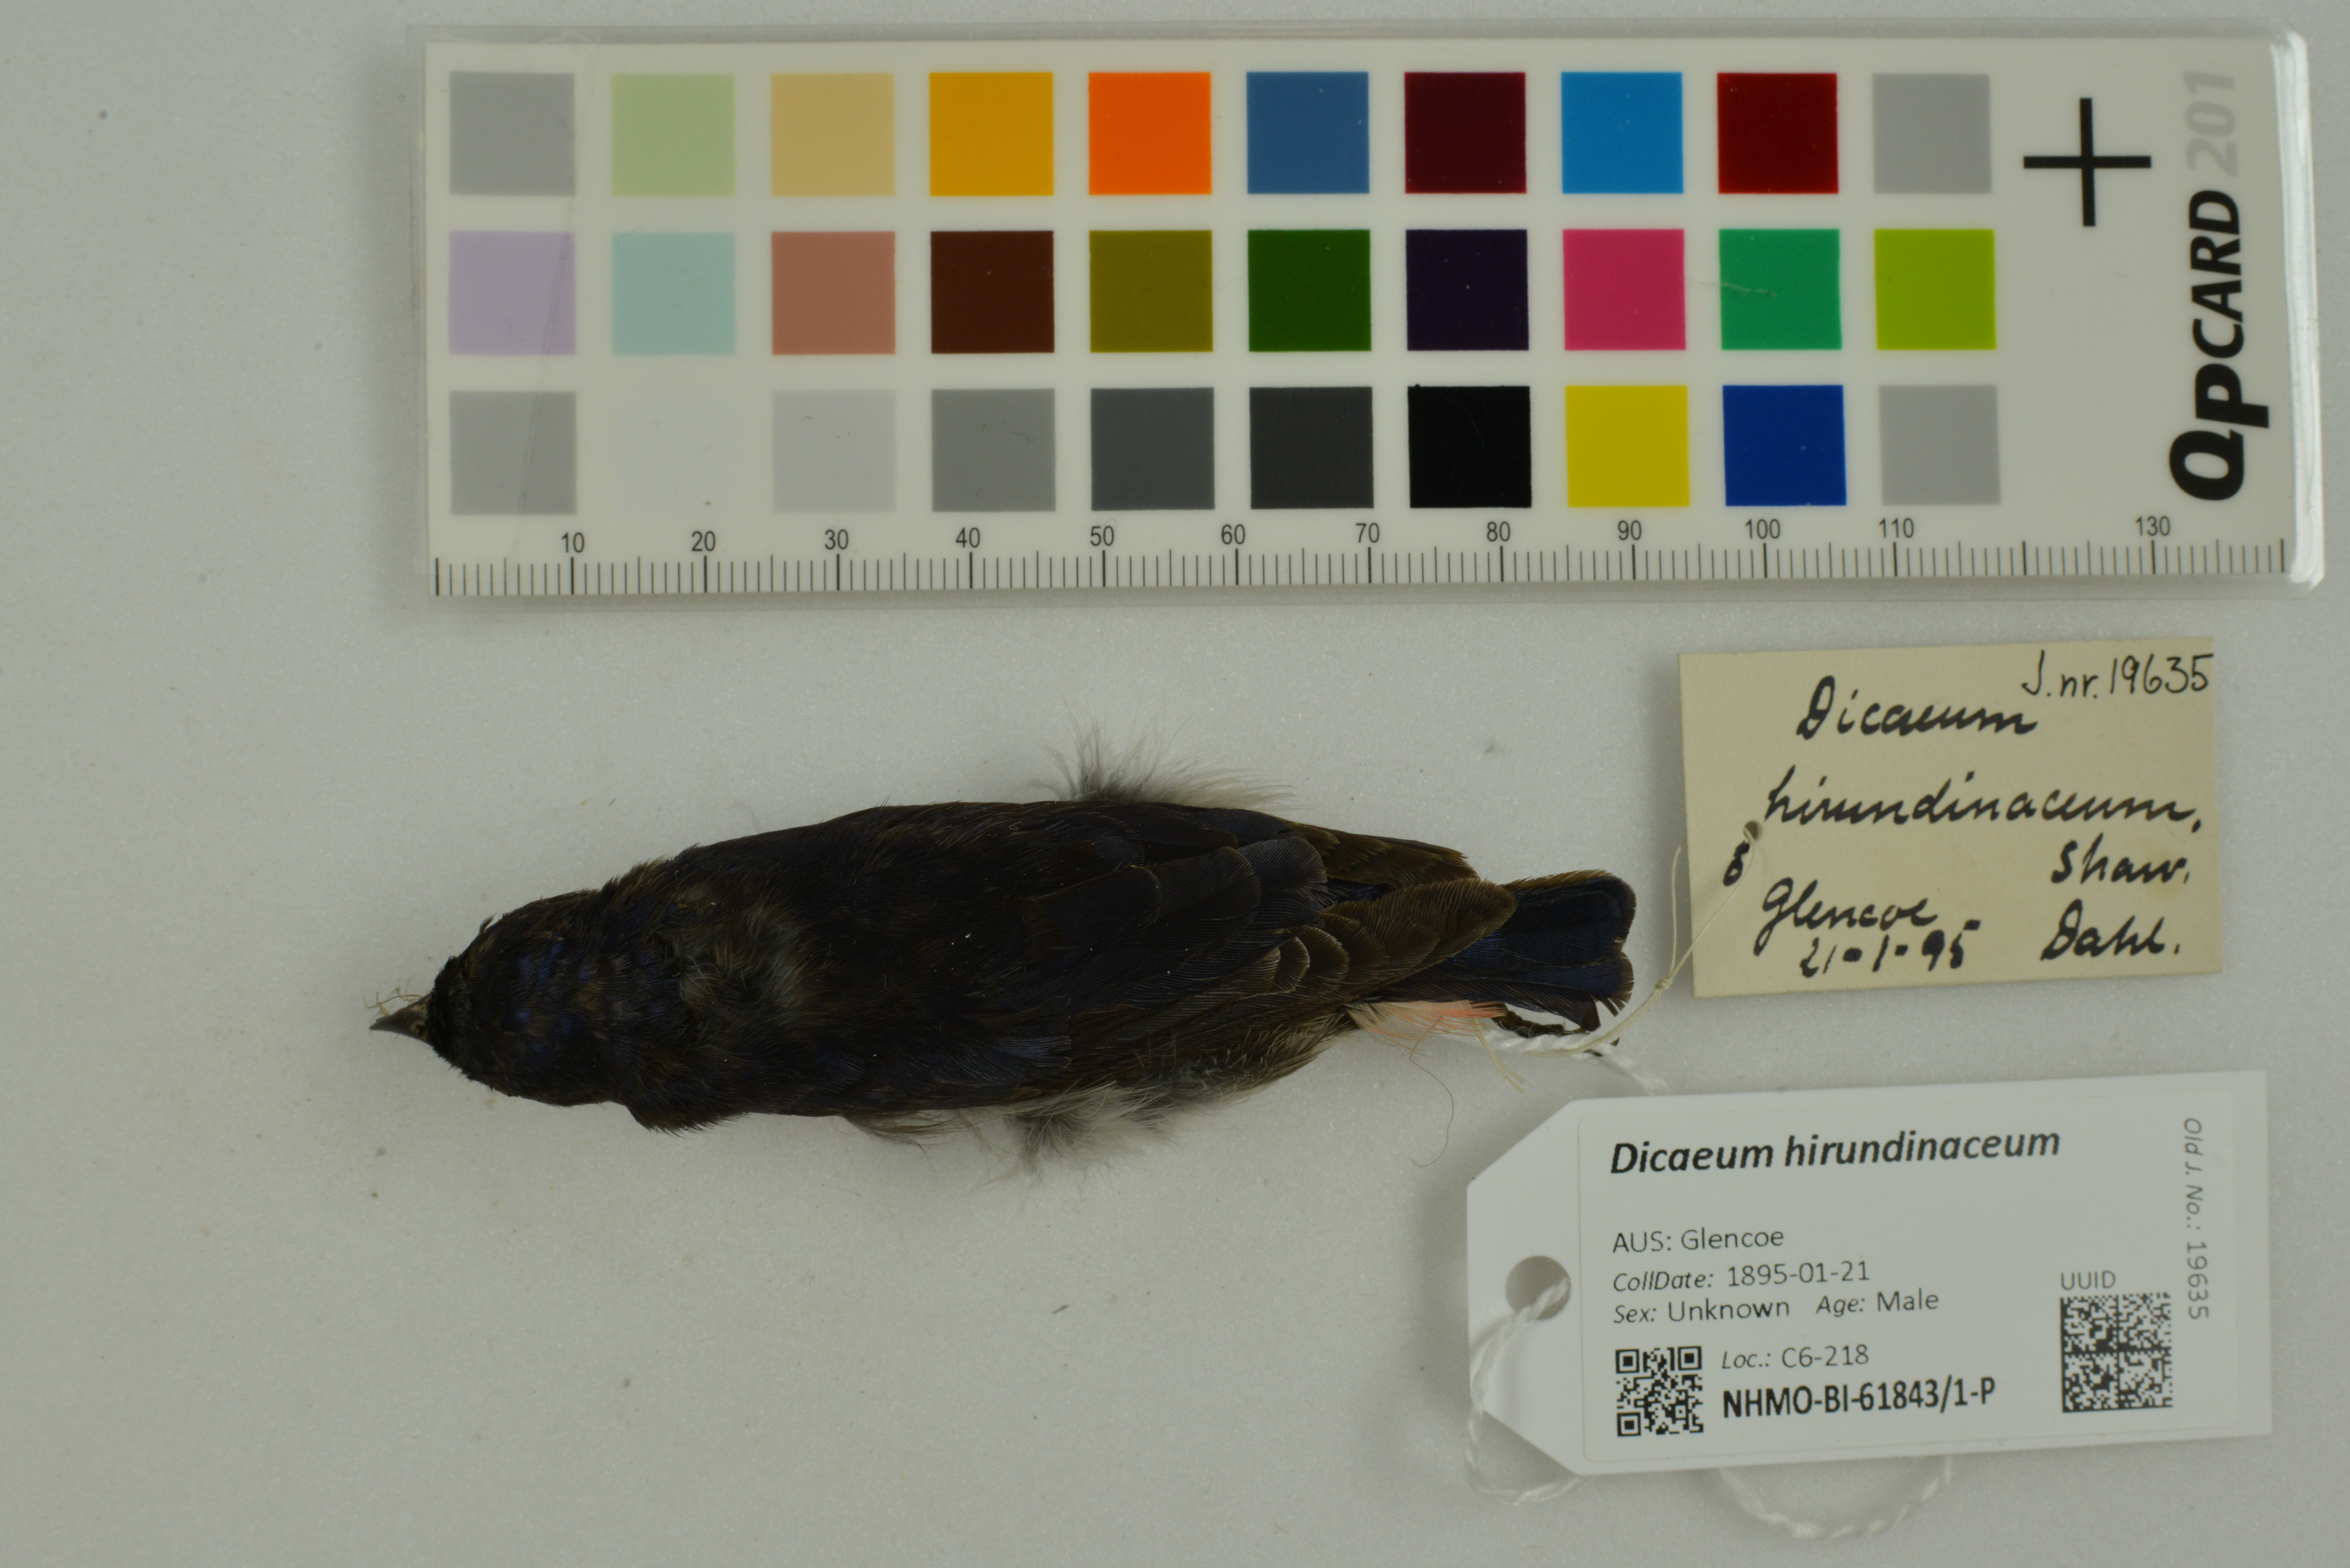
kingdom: Animalia
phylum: Chordata
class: Aves
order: Passeriformes
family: Dicaeidae
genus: Dicaeum
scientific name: Dicaeum hirundinaceum
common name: Mistletoebird
